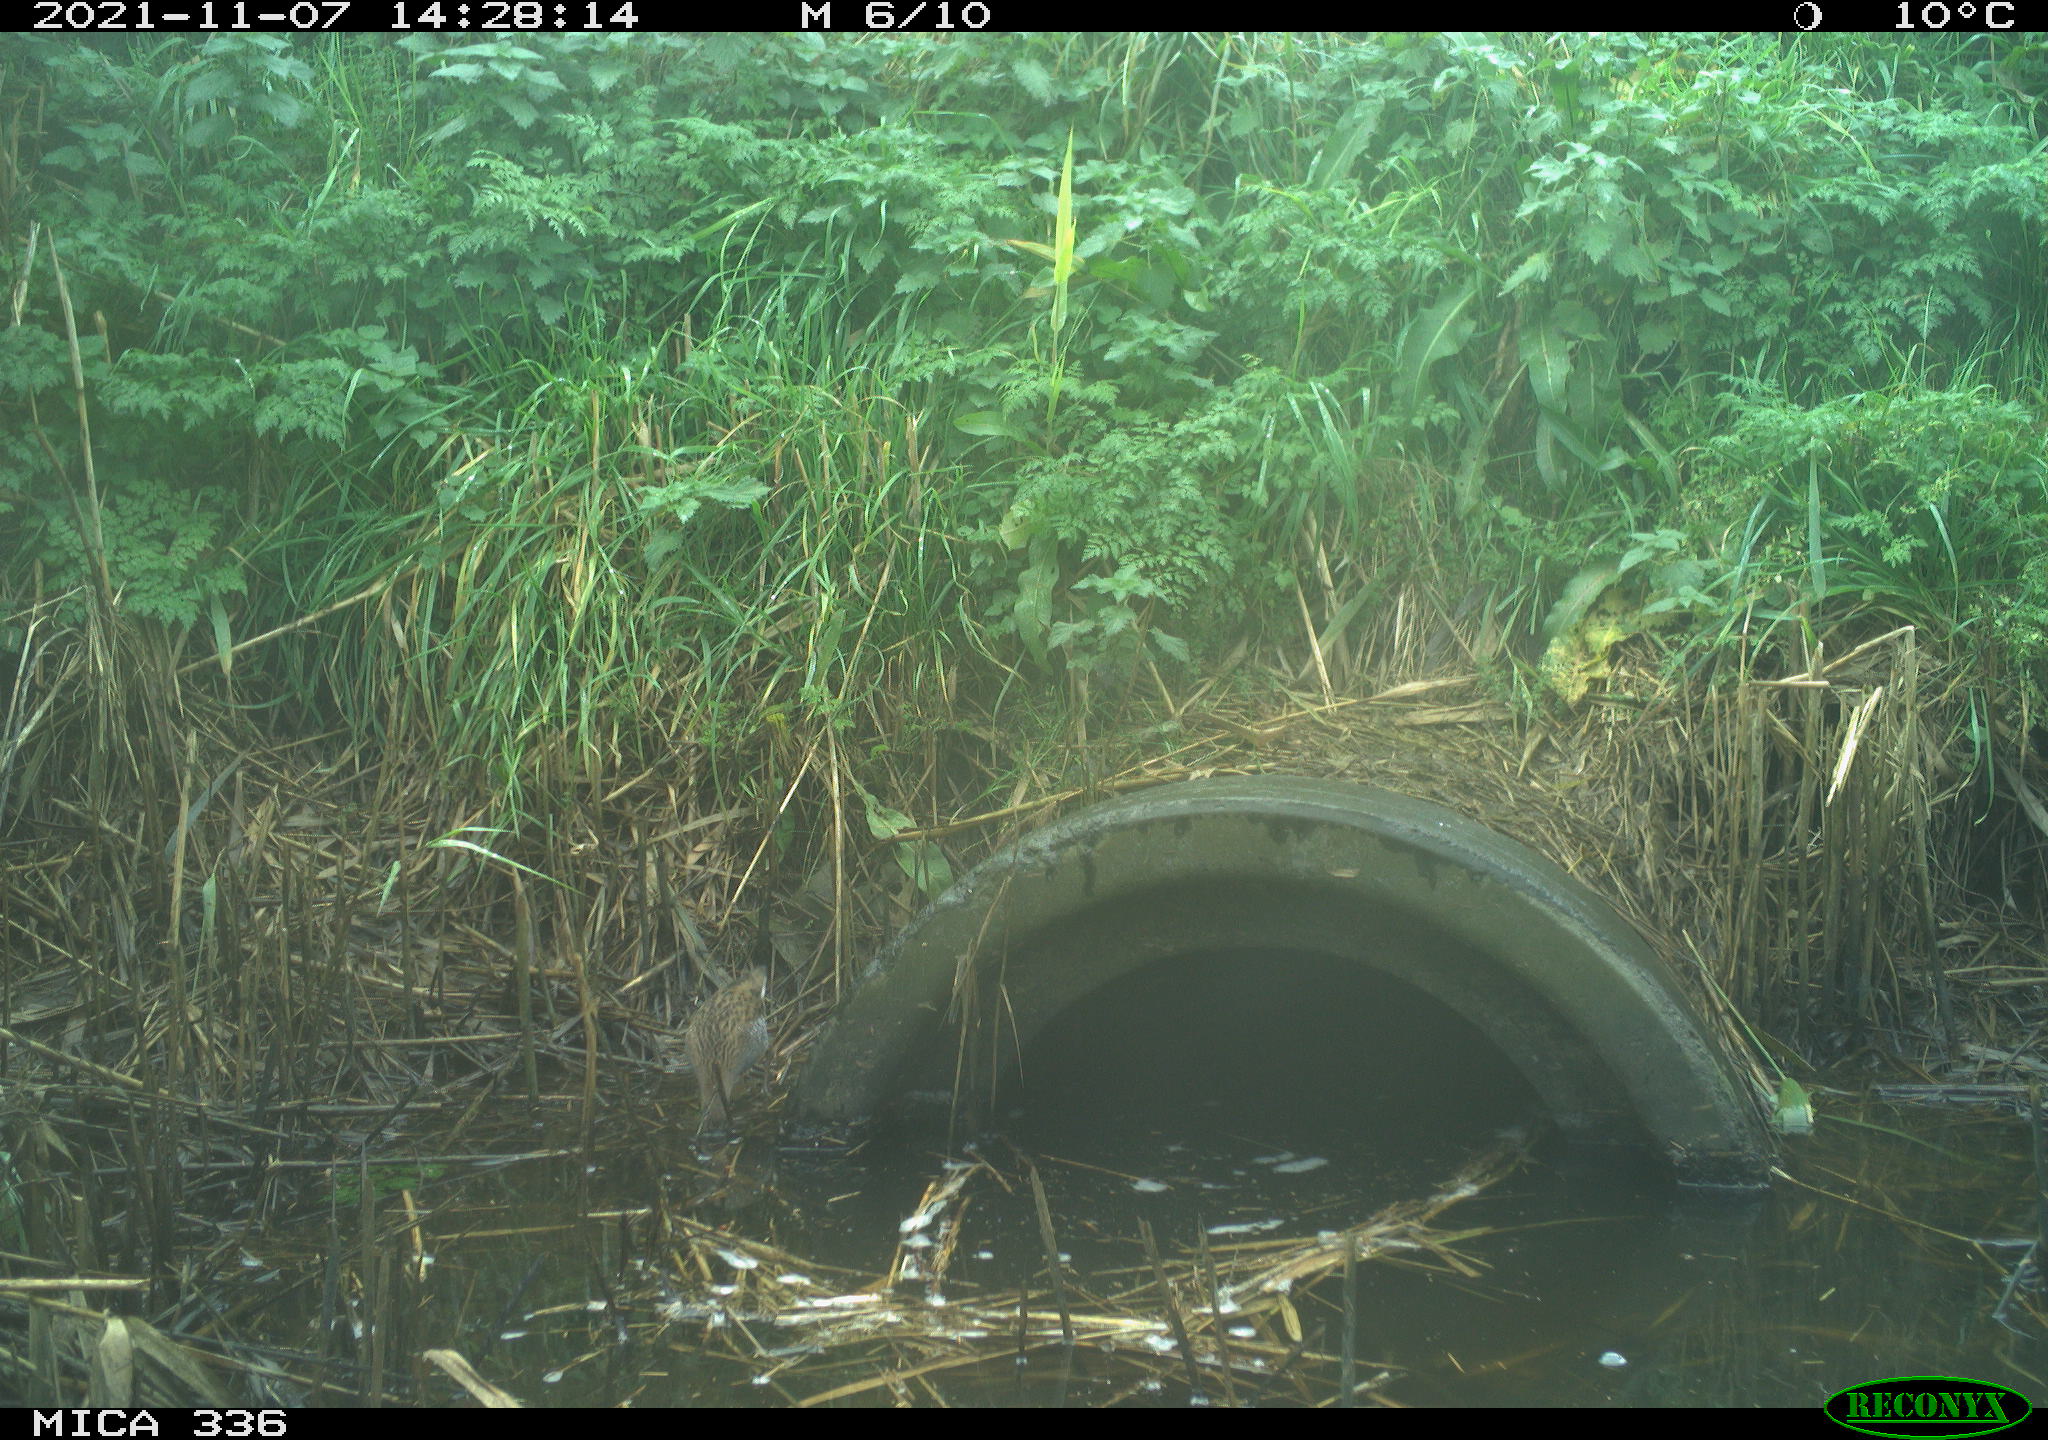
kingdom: Animalia
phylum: Chordata
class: Aves
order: Gruiformes
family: Rallidae
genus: Gallinula
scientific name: Gallinula chloropus
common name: Common moorhen
